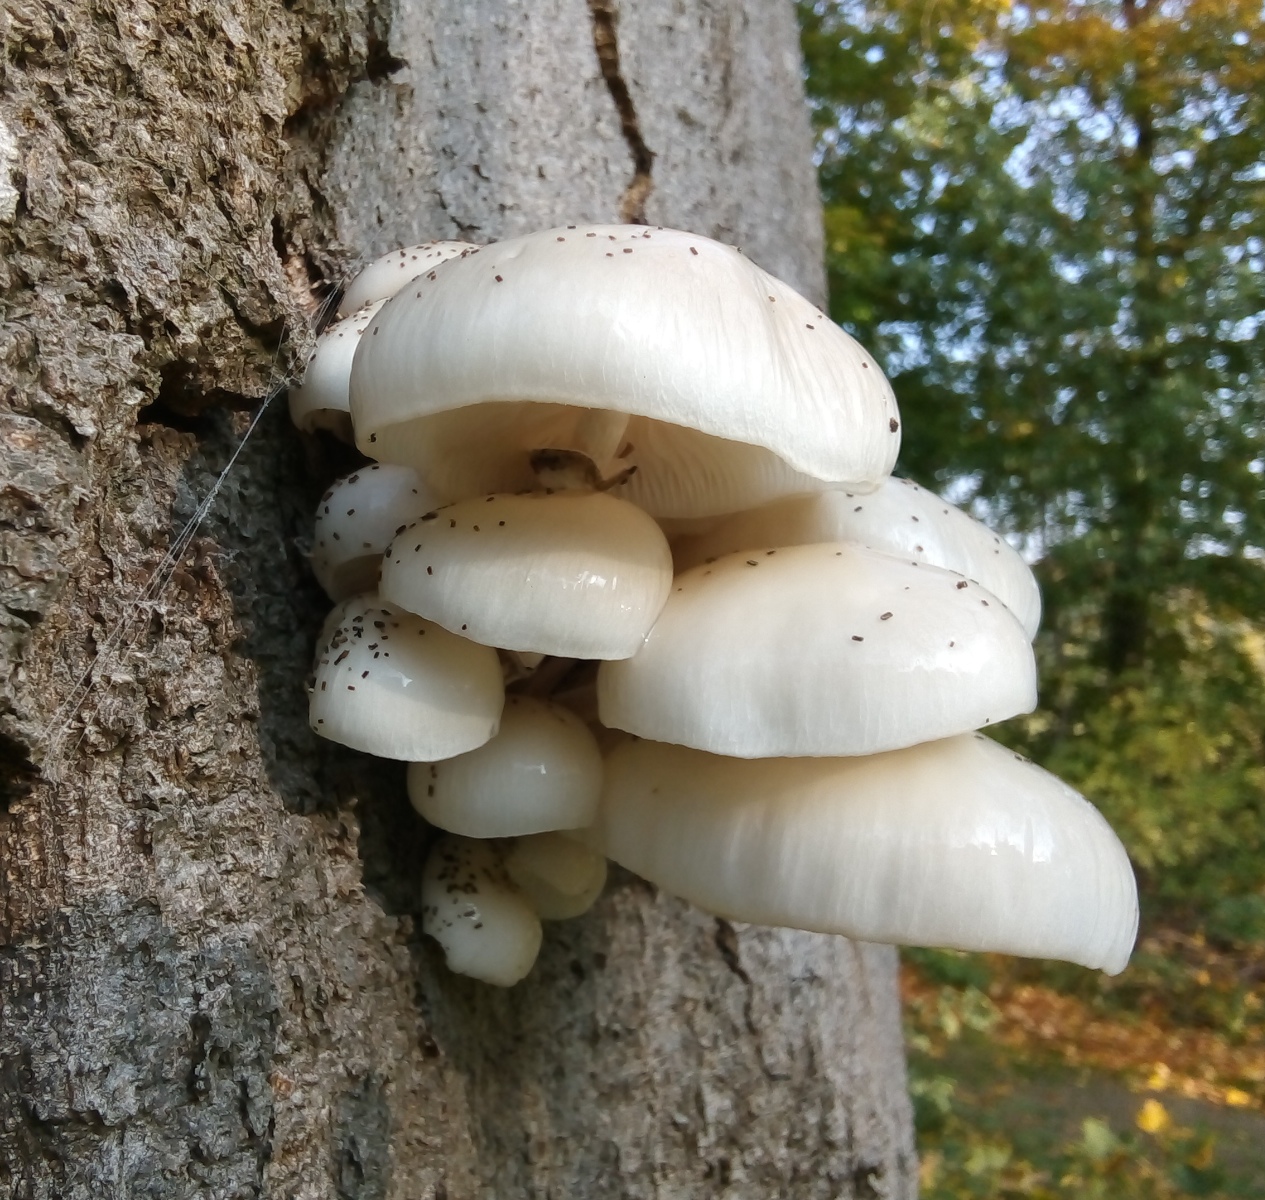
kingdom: Fungi
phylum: Basidiomycota
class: Agaricomycetes
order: Agaricales
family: Physalacriaceae
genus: Mucidula
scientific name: Mucidula mucida
